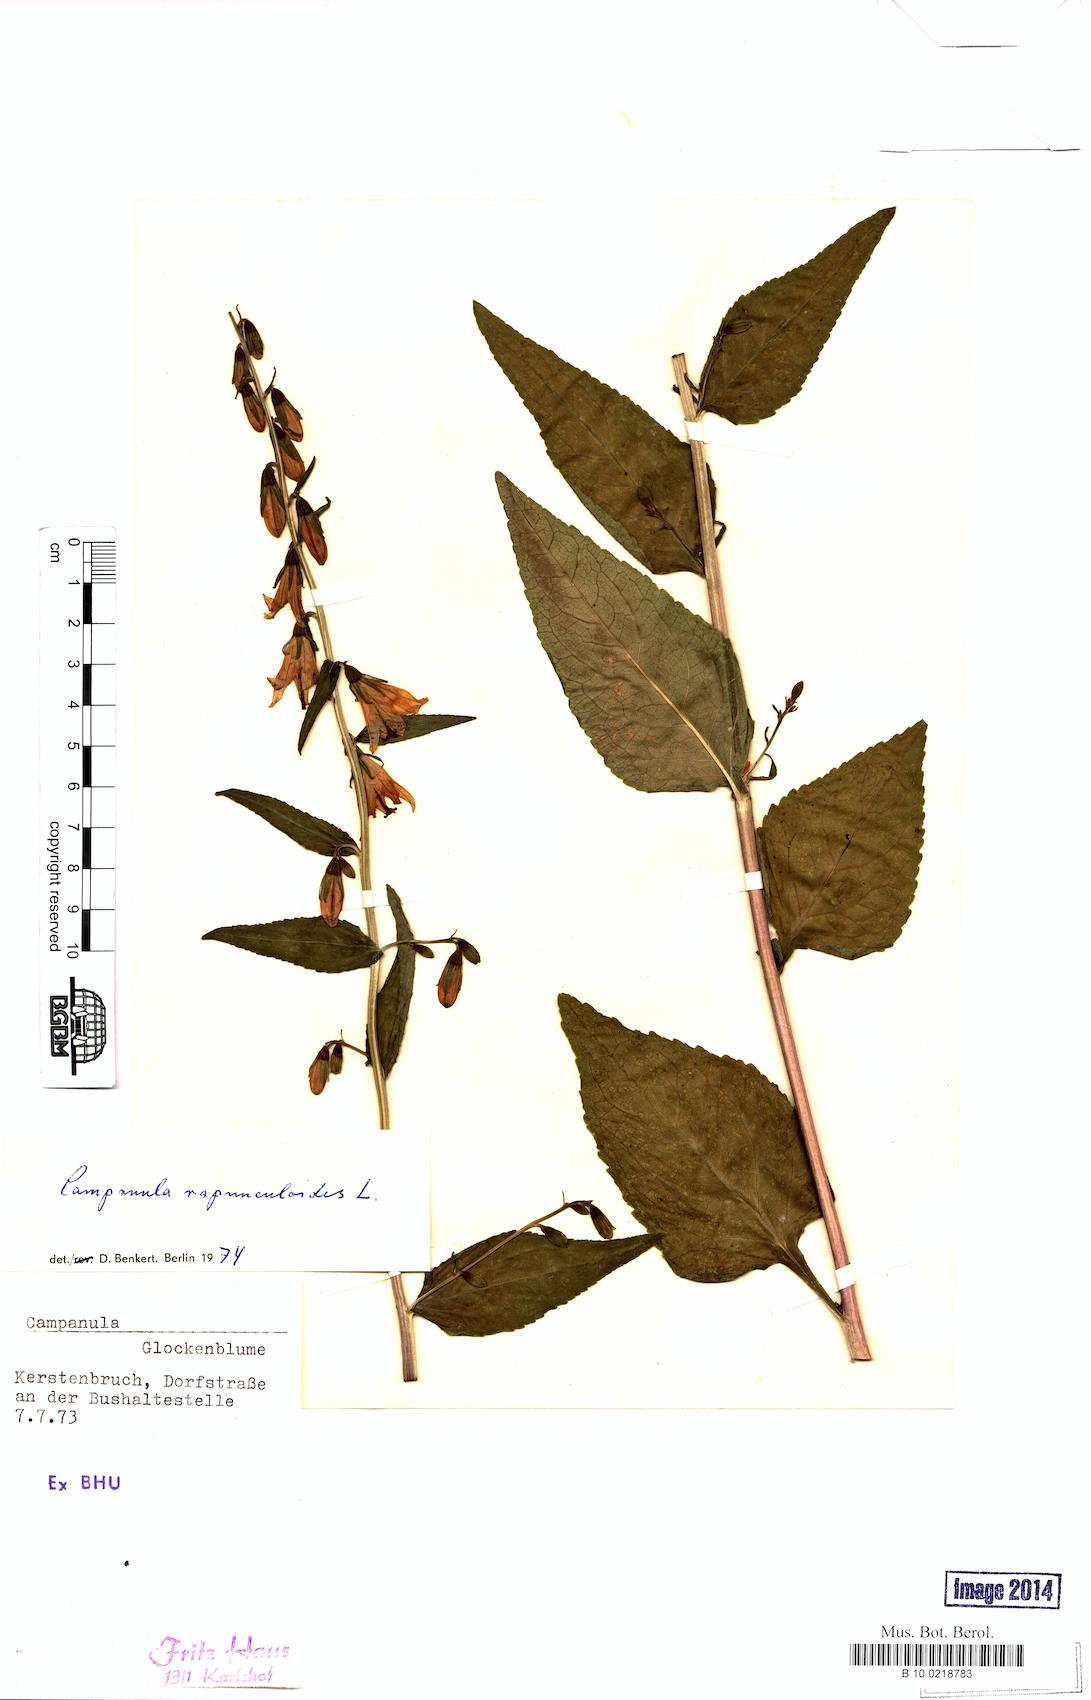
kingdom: Plantae
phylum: Tracheophyta
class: Magnoliopsida
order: Asterales
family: Campanulaceae
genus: Campanula
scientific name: Campanula rapunculoides
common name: Creeping bellflower
